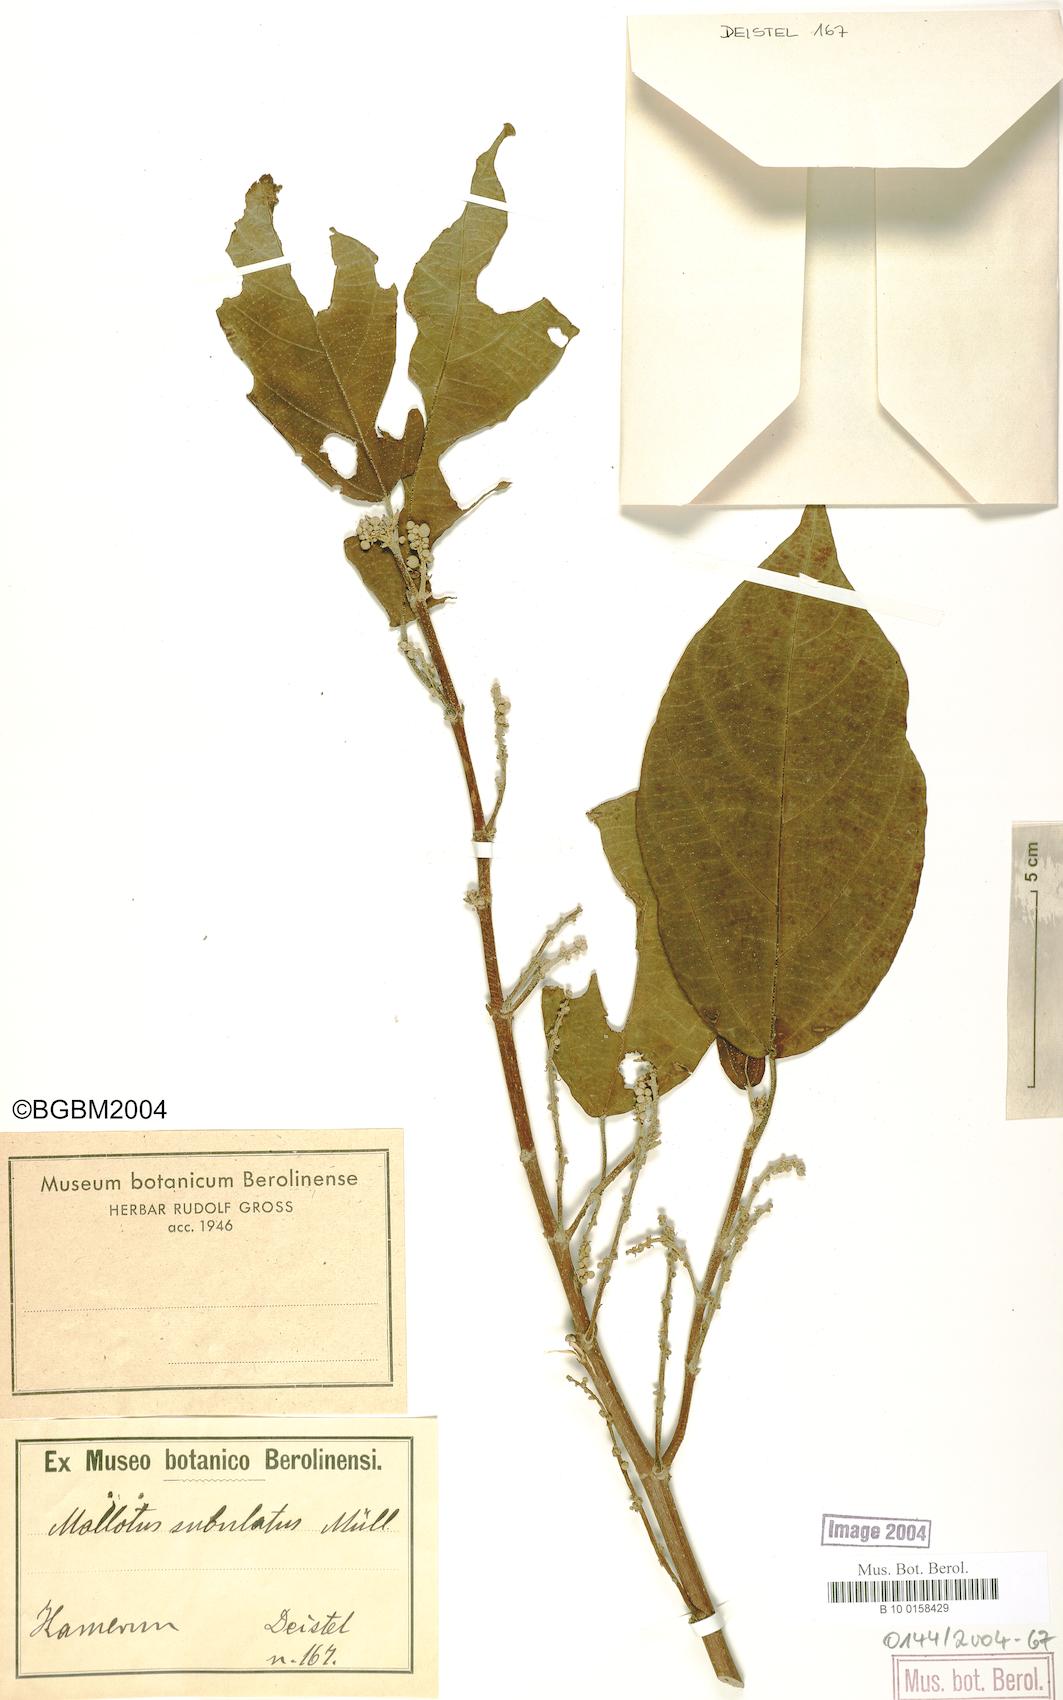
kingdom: Plantae
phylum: Tracheophyta
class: Magnoliopsida
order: Malpighiales
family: Euphorbiaceae
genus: Mallotus
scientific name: Mallotus subulatus
